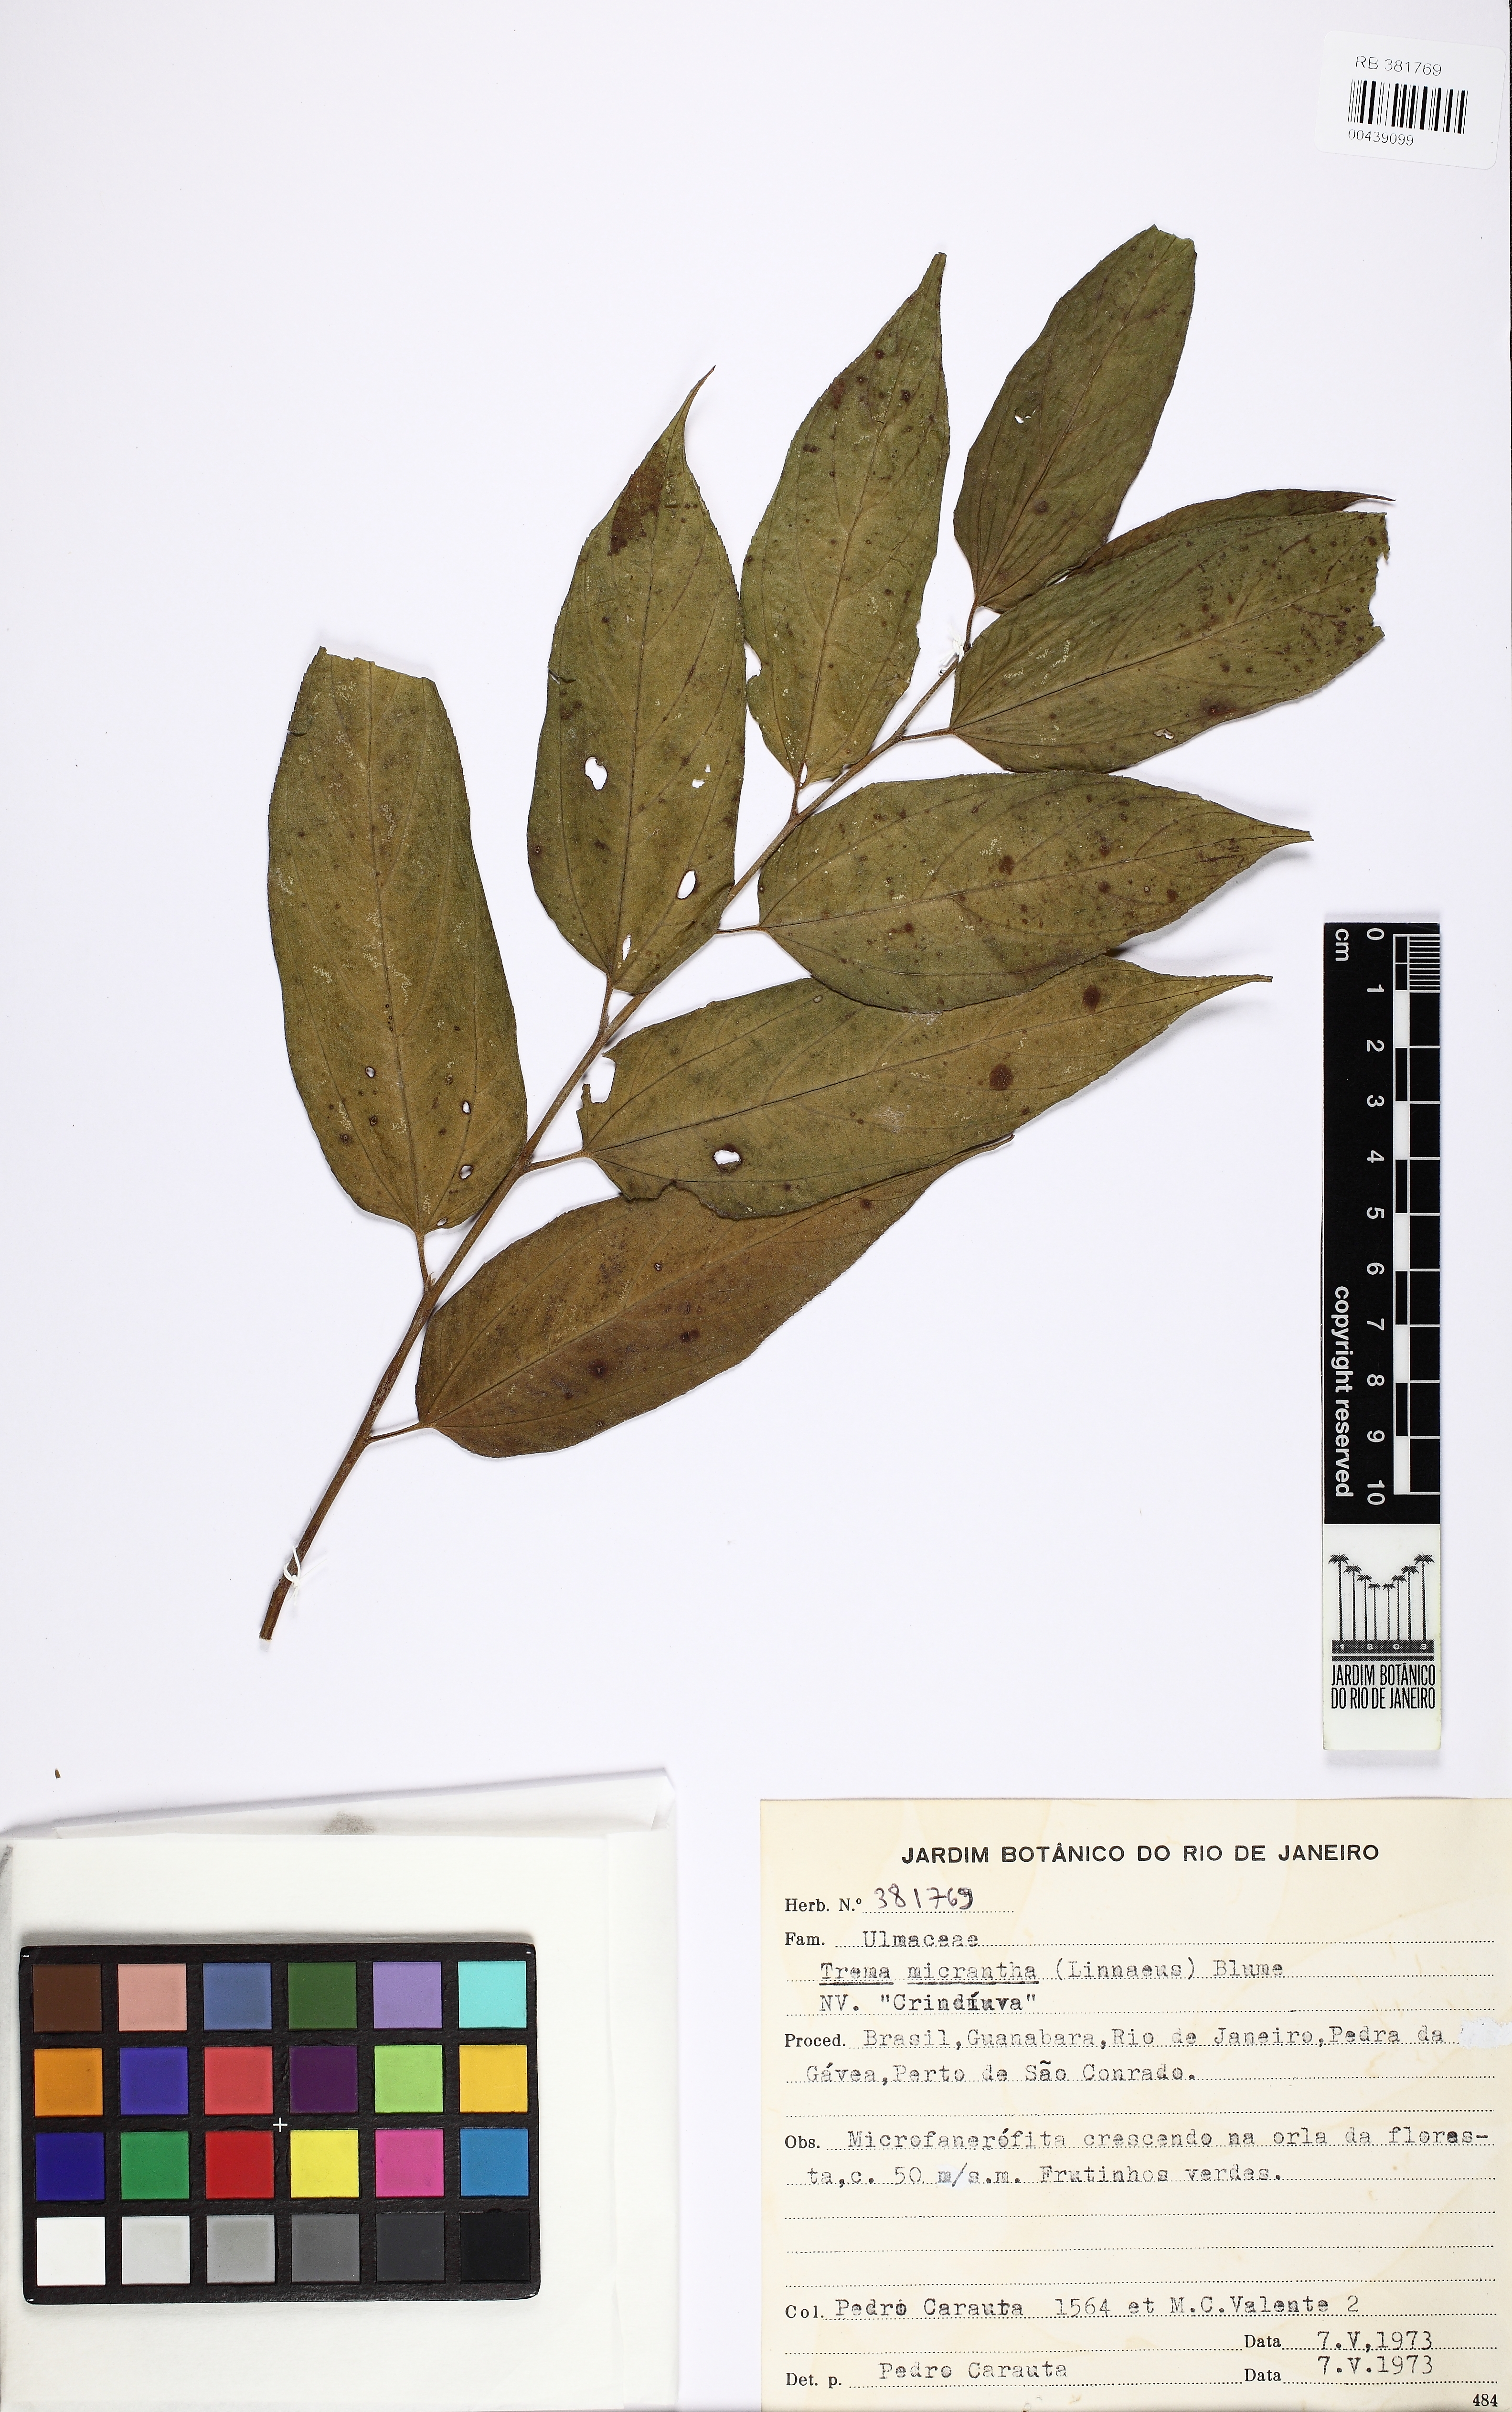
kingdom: Plantae
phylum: Tracheophyta
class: Magnoliopsida
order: Rosales
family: Cannabaceae
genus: Trema
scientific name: Trema micranthum
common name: Jamaican nettletree
